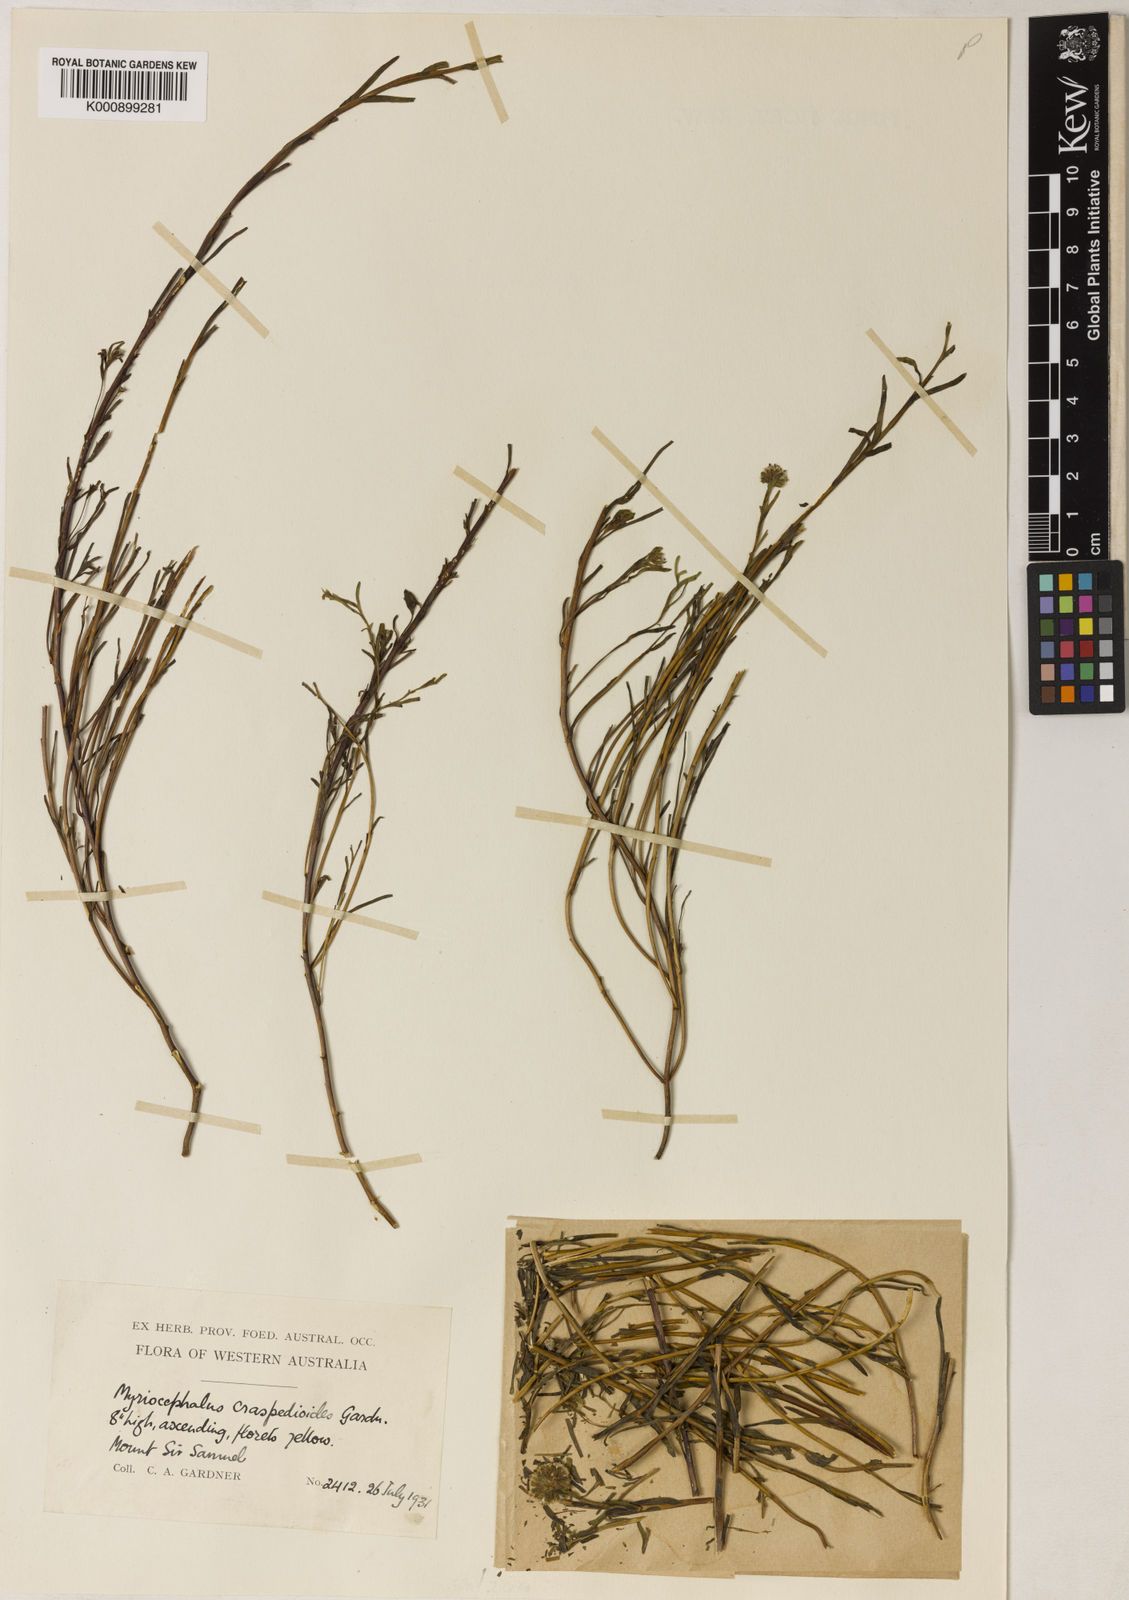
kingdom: Plantae
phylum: Tracheophyta
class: Magnoliopsida
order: Asterales
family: Asteraceae
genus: Myriocephalus
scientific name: Myriocephalus
